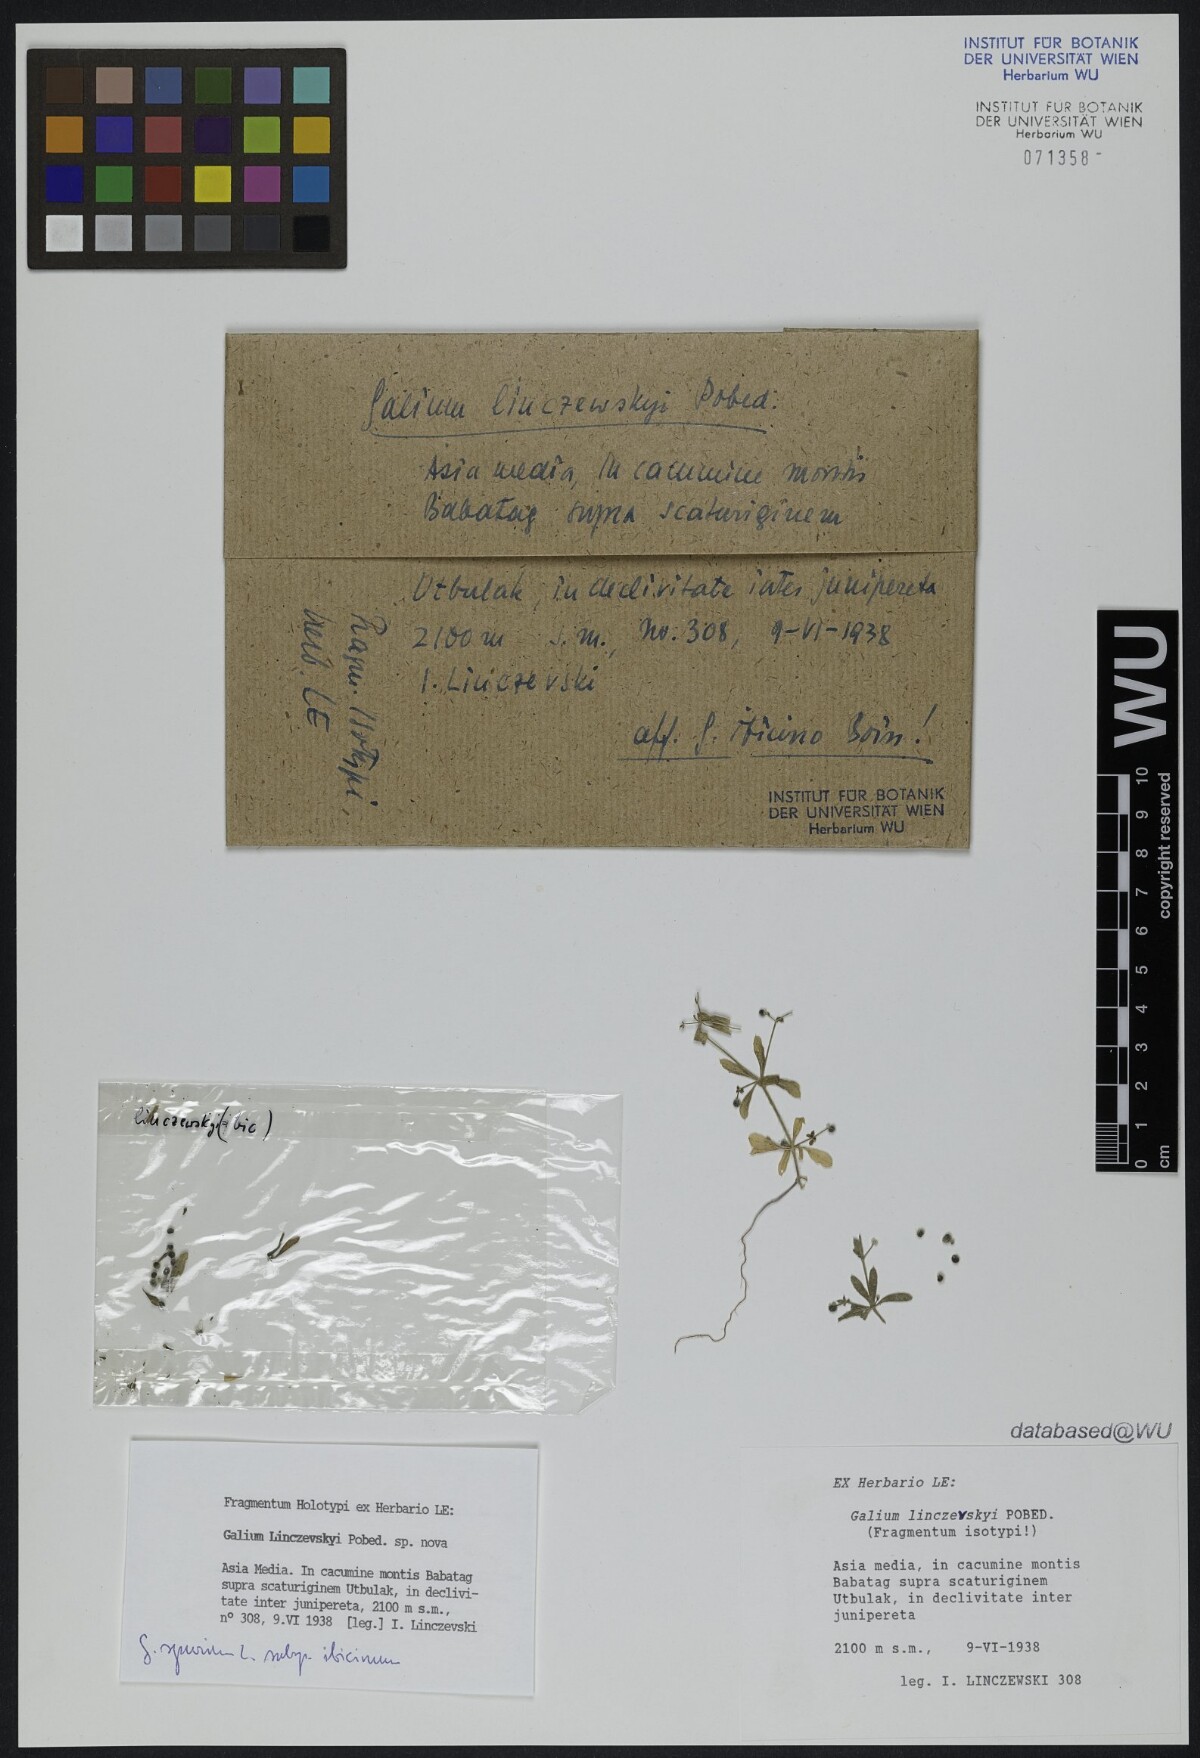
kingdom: Plantae
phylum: Tracheophyta
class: Magnoliopsida
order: Gentianales
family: Rubiaceae
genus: Galium
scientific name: Galium spurium
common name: False cleavers
